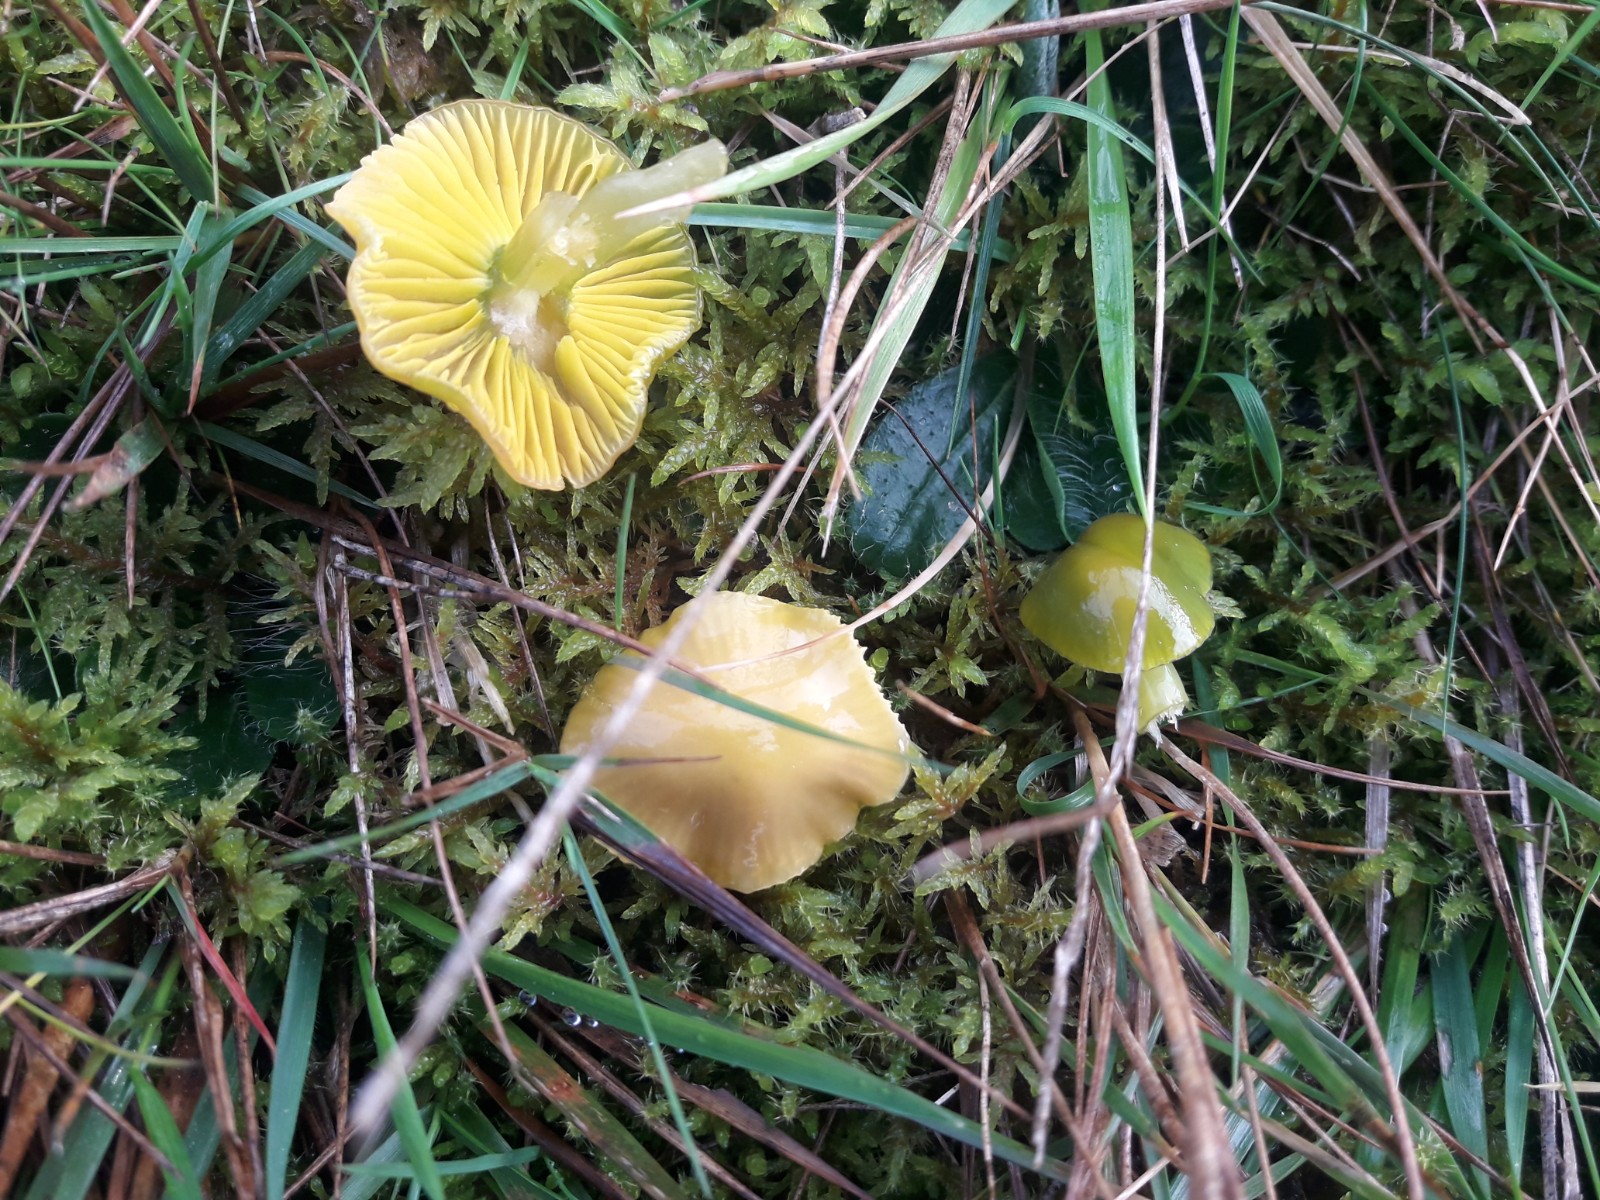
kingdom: Fungi
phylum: Basidiomycota
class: Agaricomycetes
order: Agaricales
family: Hygrophoraceae
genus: Gliophorus
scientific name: Gliophorus psittacinus
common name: papegøje-vokshat
